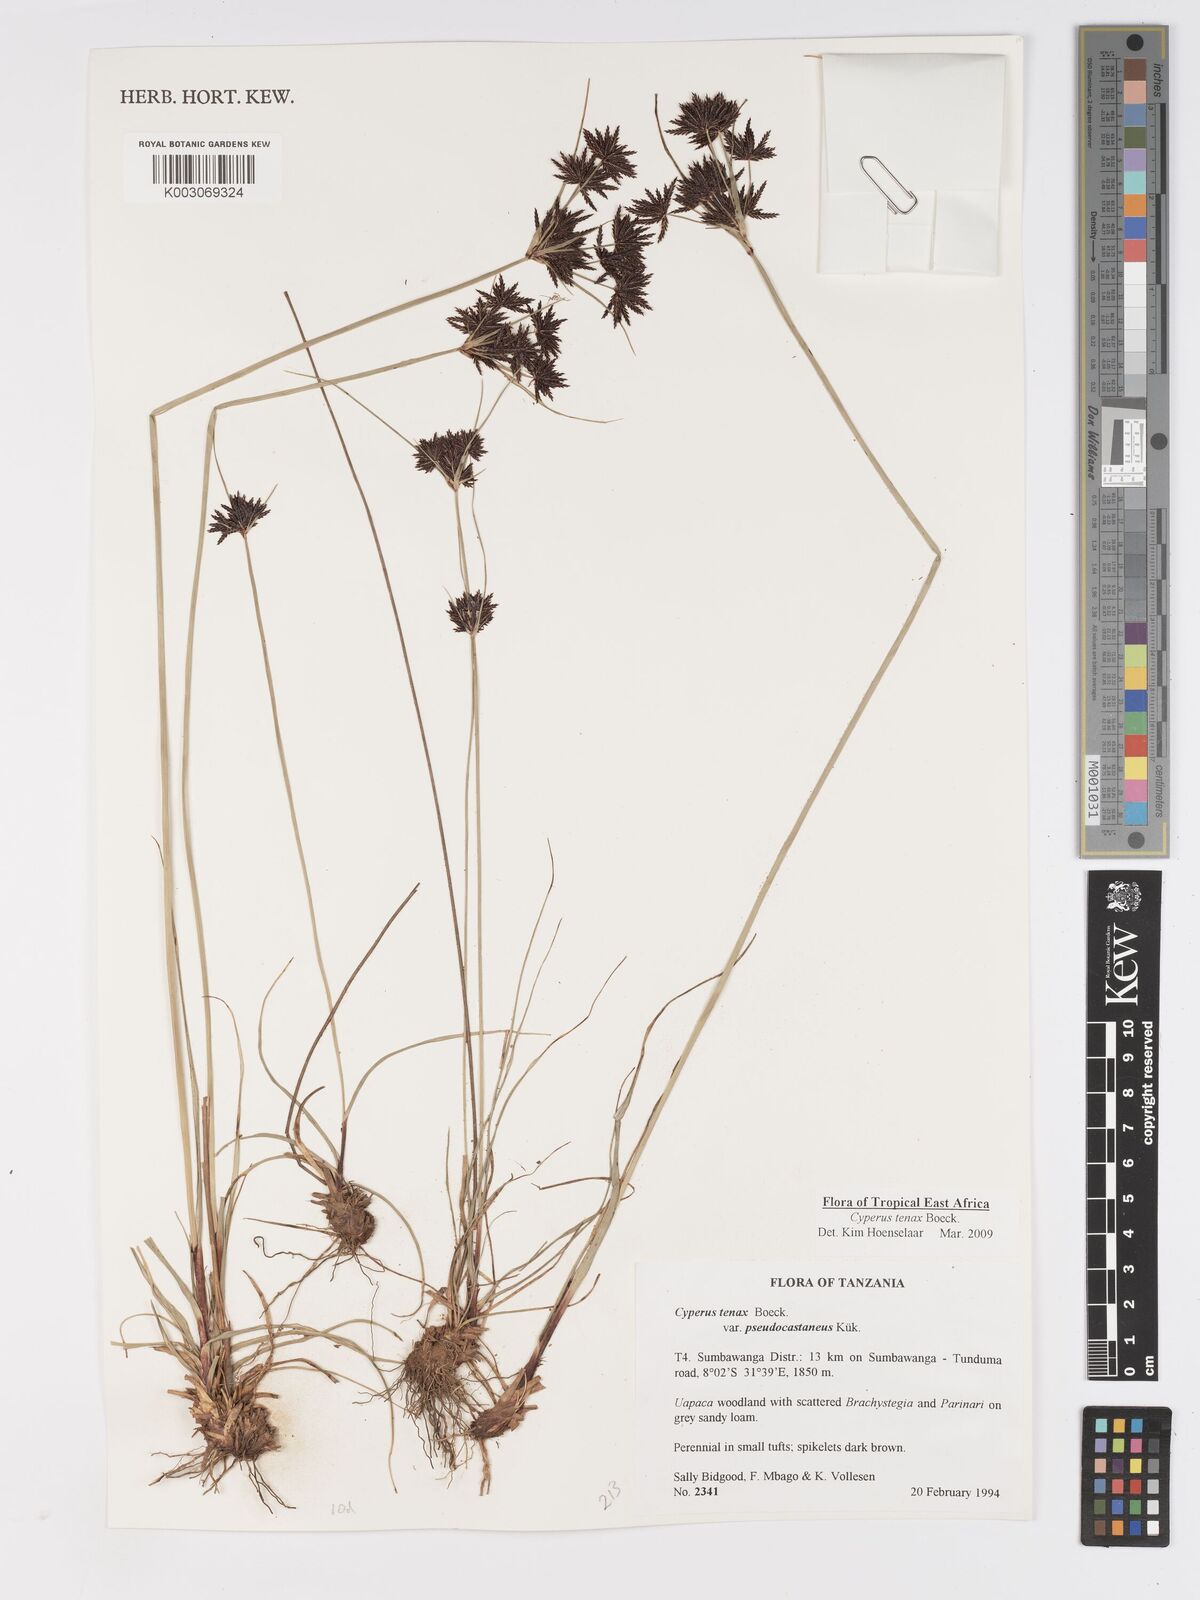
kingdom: Plantae
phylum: Tracheophyta
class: Liliopsida
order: Poales
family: Cyperaceae
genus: Cyperus
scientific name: Cyperus tenax
